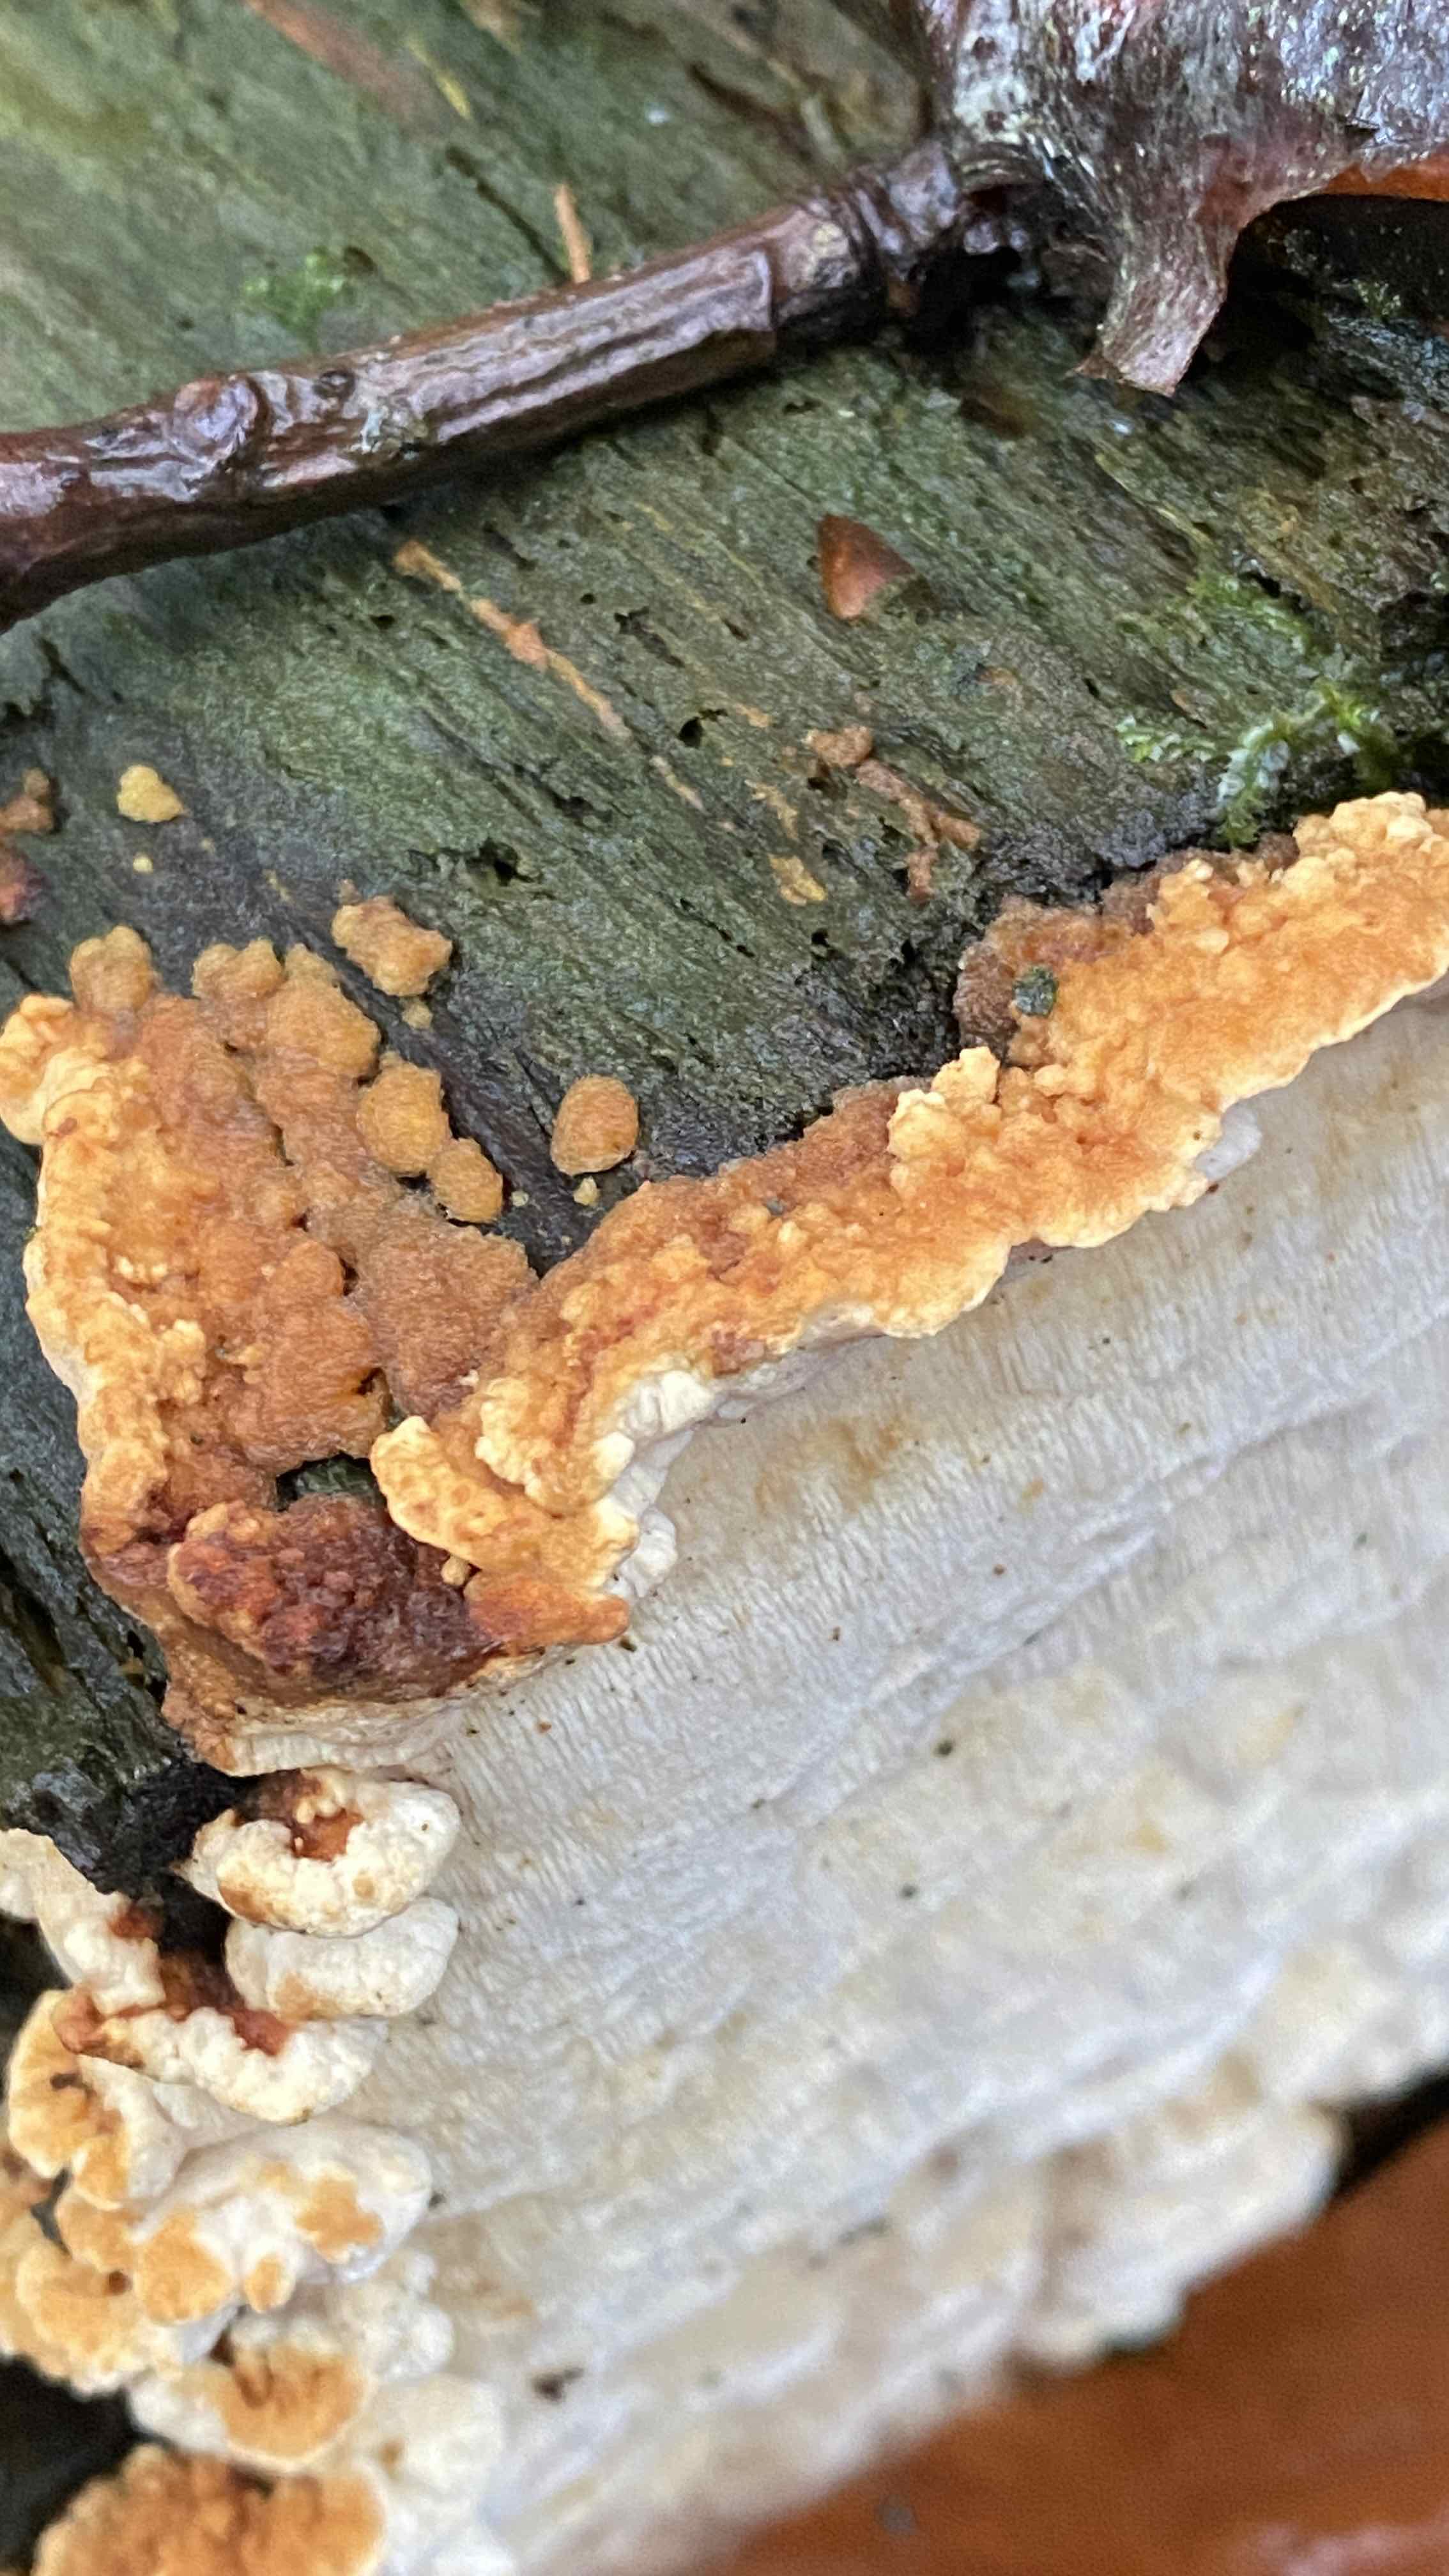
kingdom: Fungi
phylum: Basidiomycota
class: Agaricomycetes
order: Polyporales
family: Fomitopsidaceae
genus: Neoantrodia
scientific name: Neoantrodia serialis
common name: række-sejporesvamp
